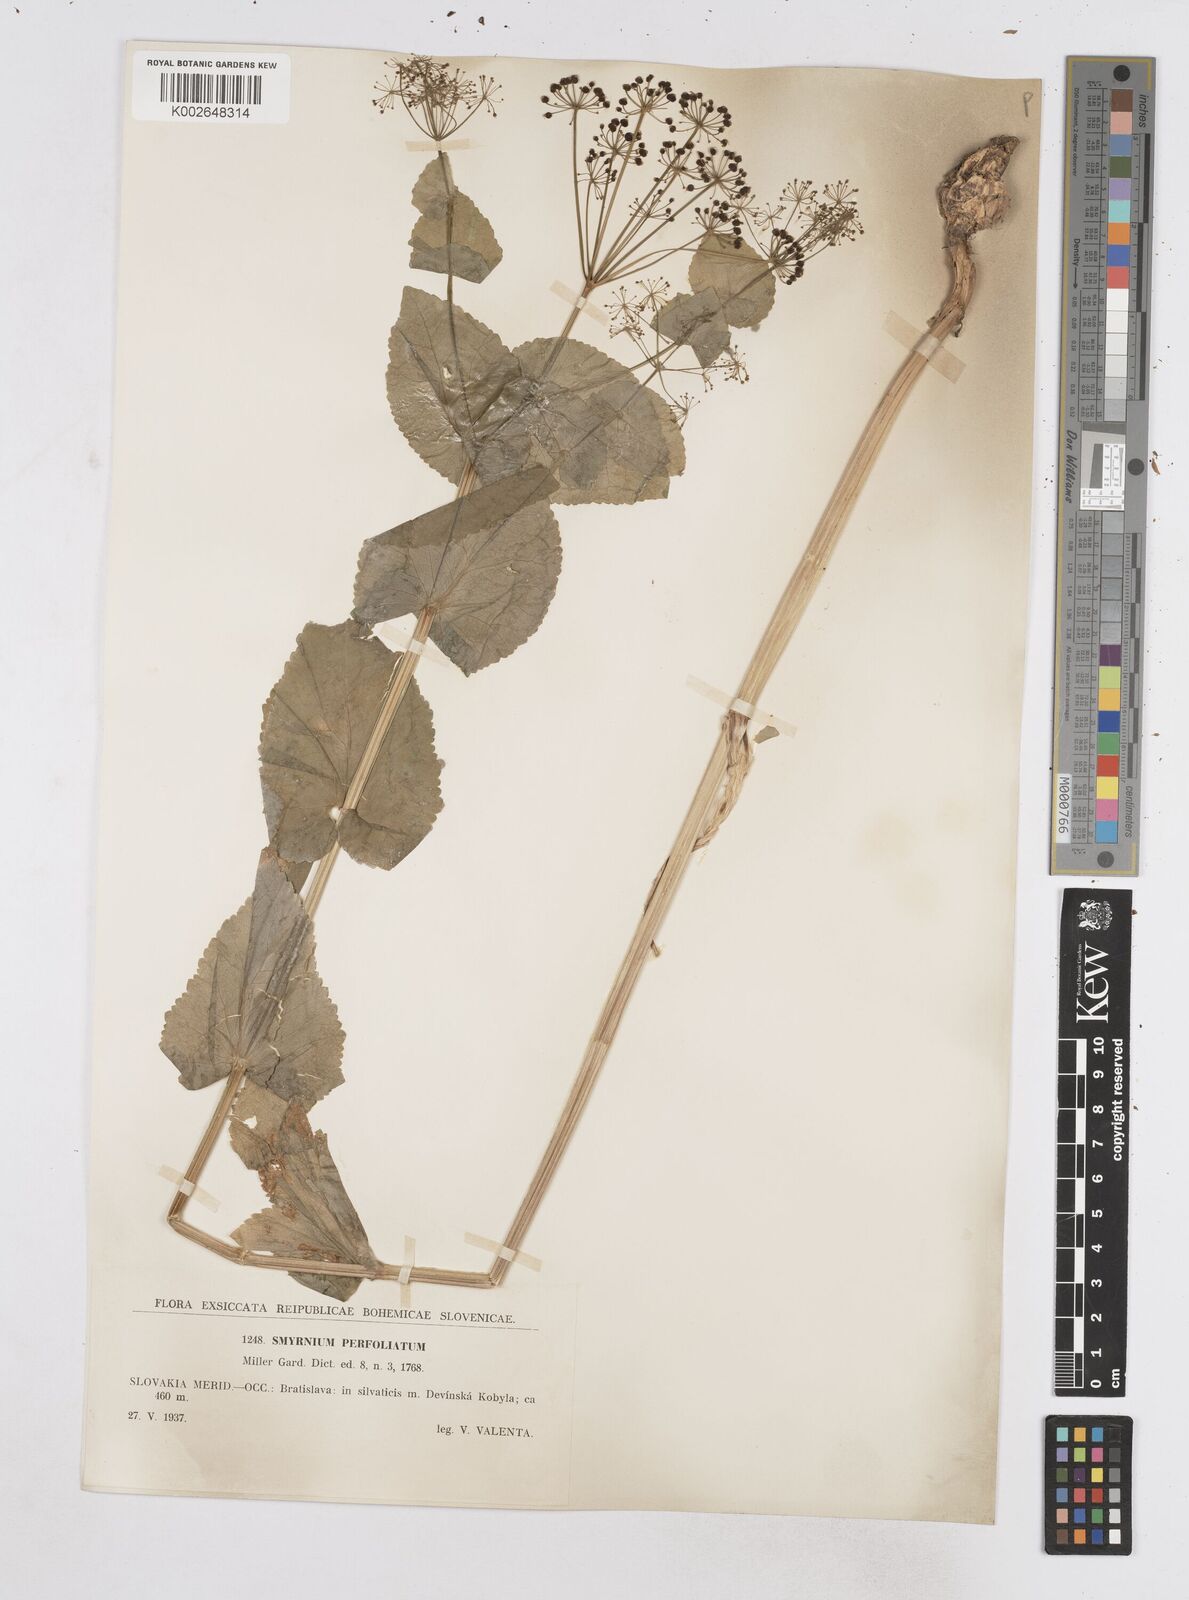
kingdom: Plantae
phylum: Tracheophyta
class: Magnoliopsida
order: Apiales
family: Apiaceae
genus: Smyrnium
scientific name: Smyrnium perfoliatum
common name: Perfoliate alexanders
